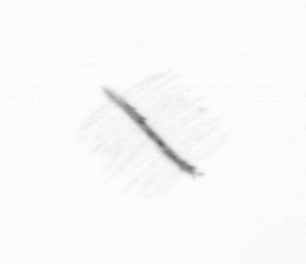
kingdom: Chromista
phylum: Ochrophyta
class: Bacillariophyceae
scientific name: Bacillariophyceae
